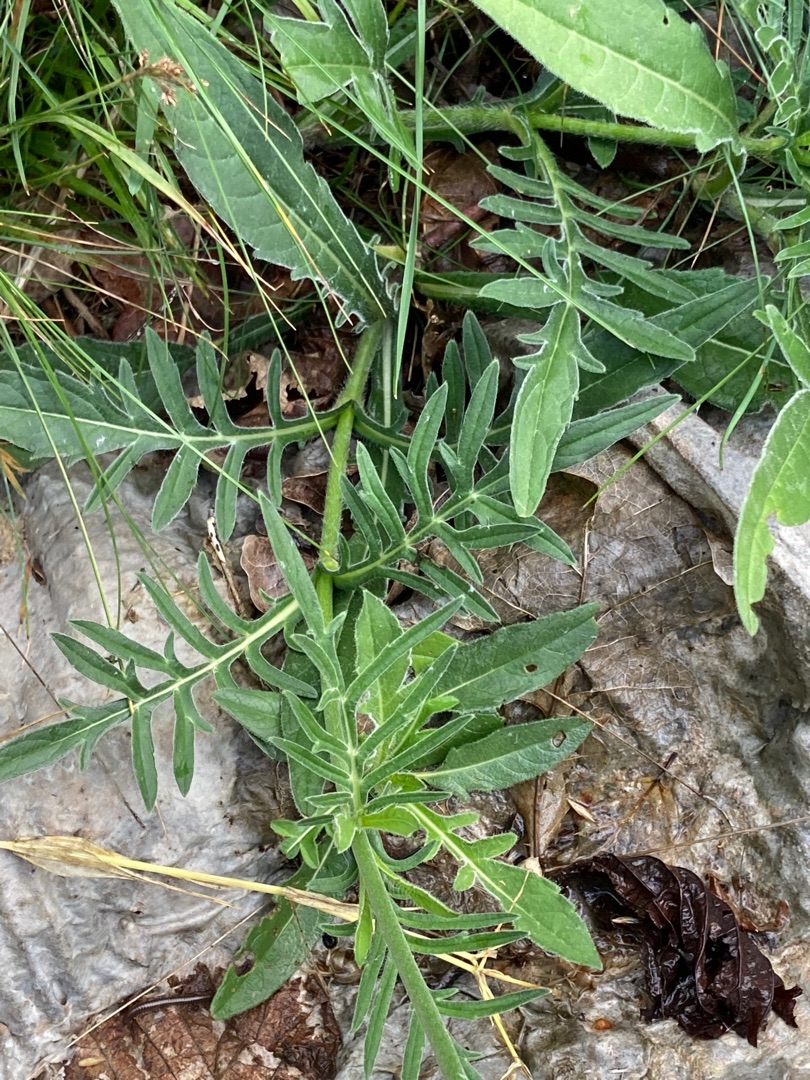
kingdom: Plantae
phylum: Tracheophyta
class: Magnoliopsida
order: Dipsacales
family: Caprifoliaceae
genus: Knautia
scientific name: Knautia arvensis
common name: Blåhat
